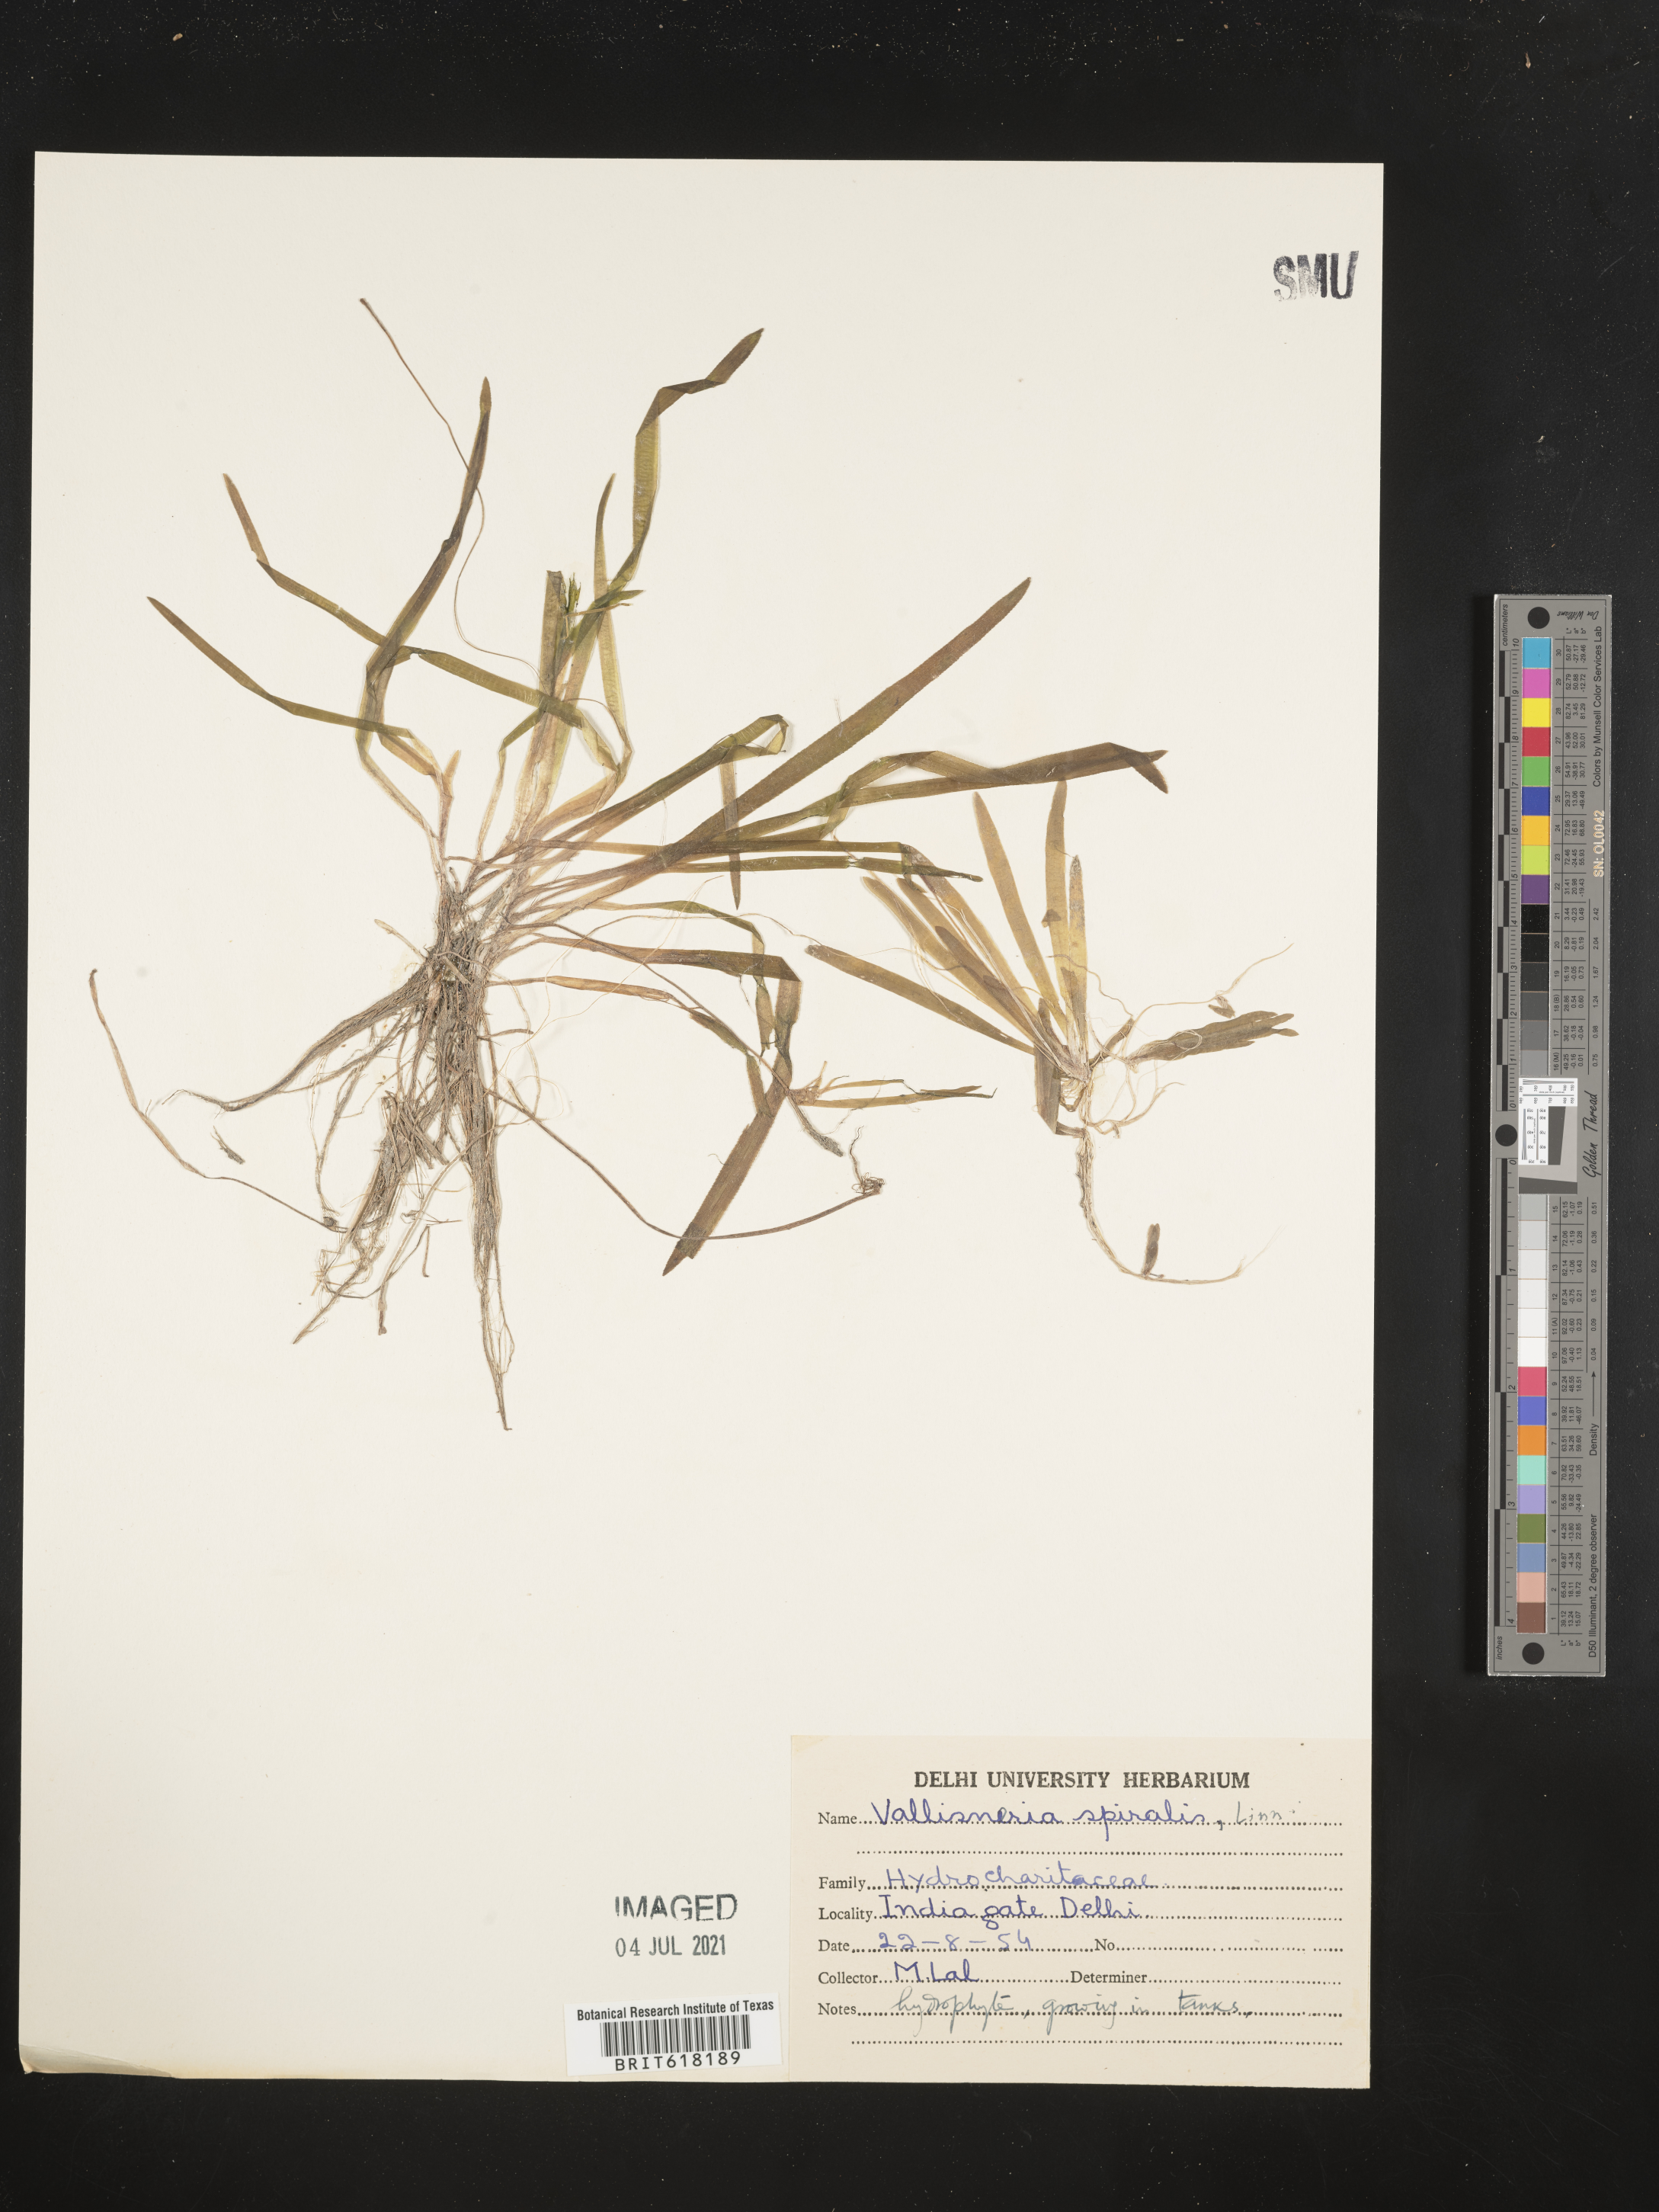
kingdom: Plantae
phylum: Tracheophyta
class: Liliopsida
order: Alismatales
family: Hydrocharitaceae
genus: Vallisneria
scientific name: Vallisneria spiralis
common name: Tapegrass
